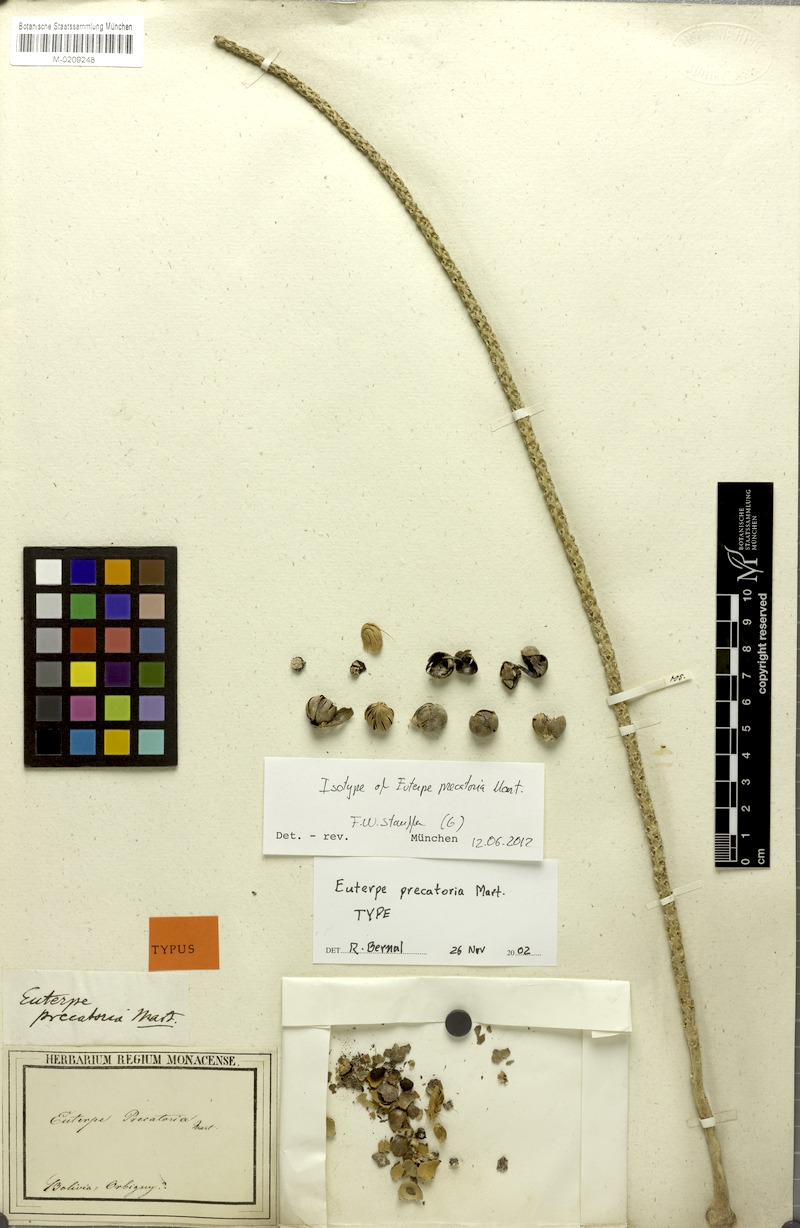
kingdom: Plantae
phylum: Tracheophyta
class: Liliopsida
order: Arecales
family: Arecaceae
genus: Euterpe
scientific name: Euterpe precatoria
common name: Mountain-cabbage
